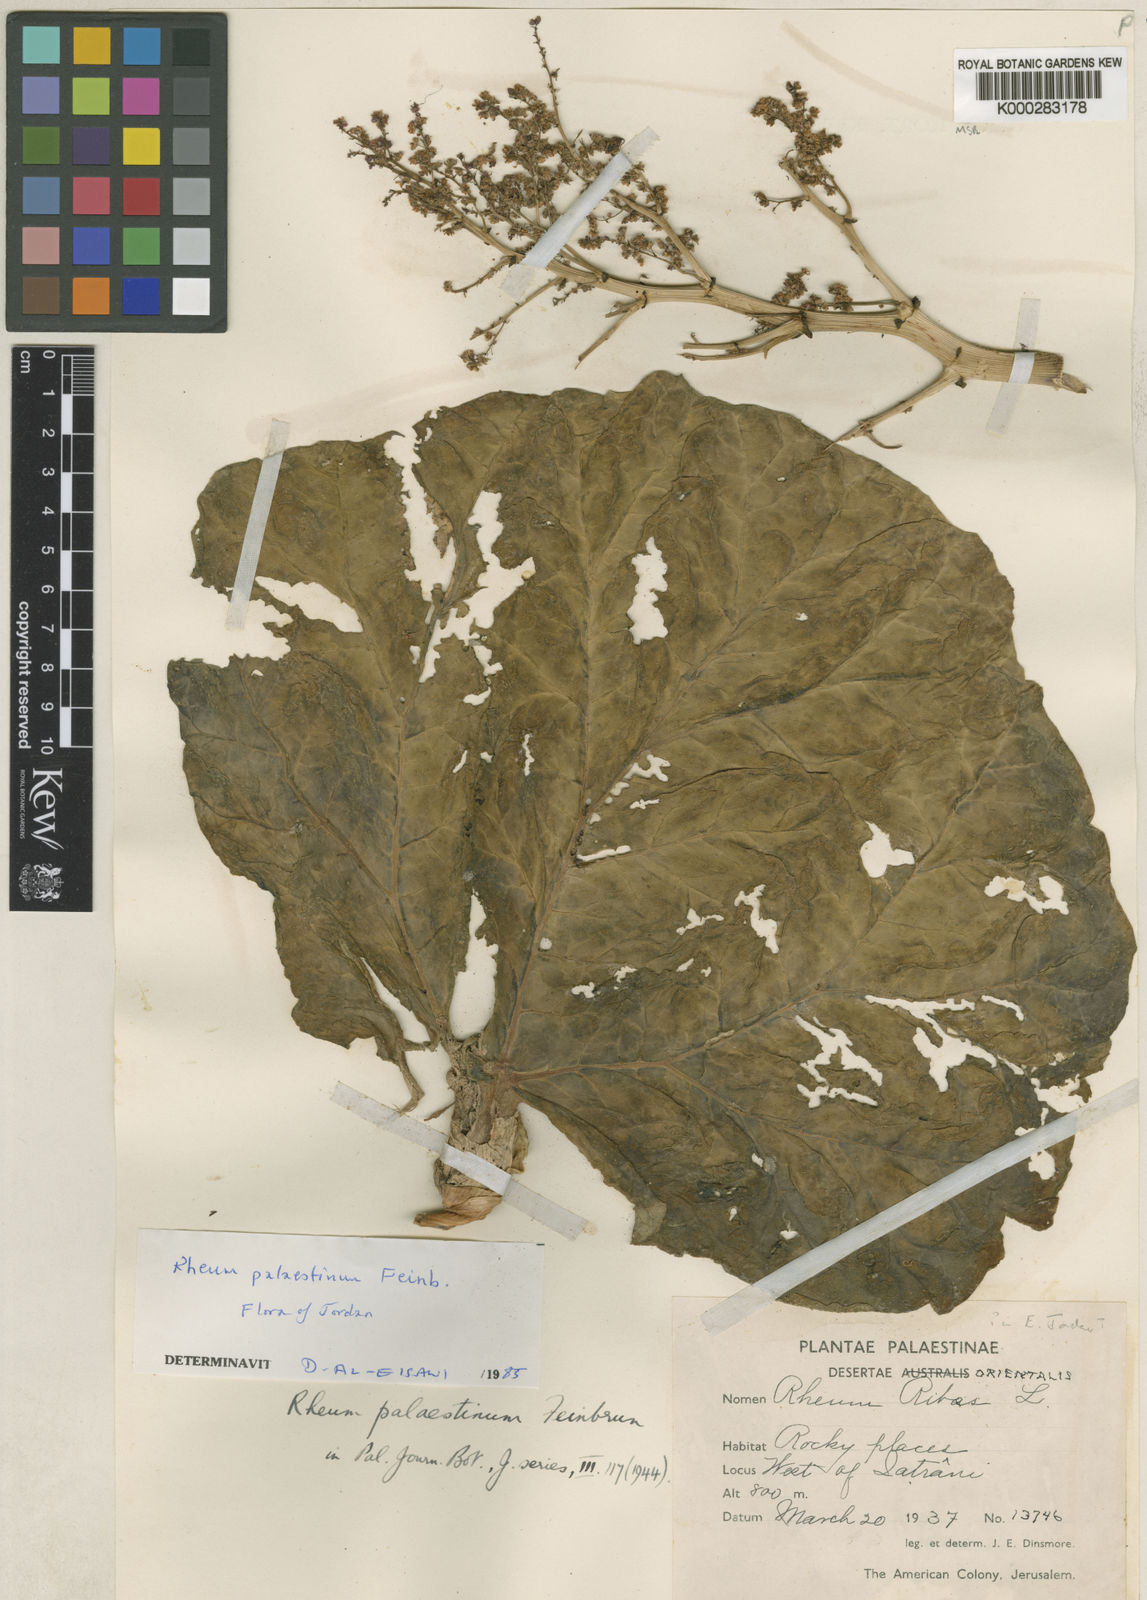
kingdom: Plantae
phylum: Tracheophyta
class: Magnoliopsida
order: Caryophyllales
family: Polygonaceae
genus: Rheum
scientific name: Rheum palaestinum
